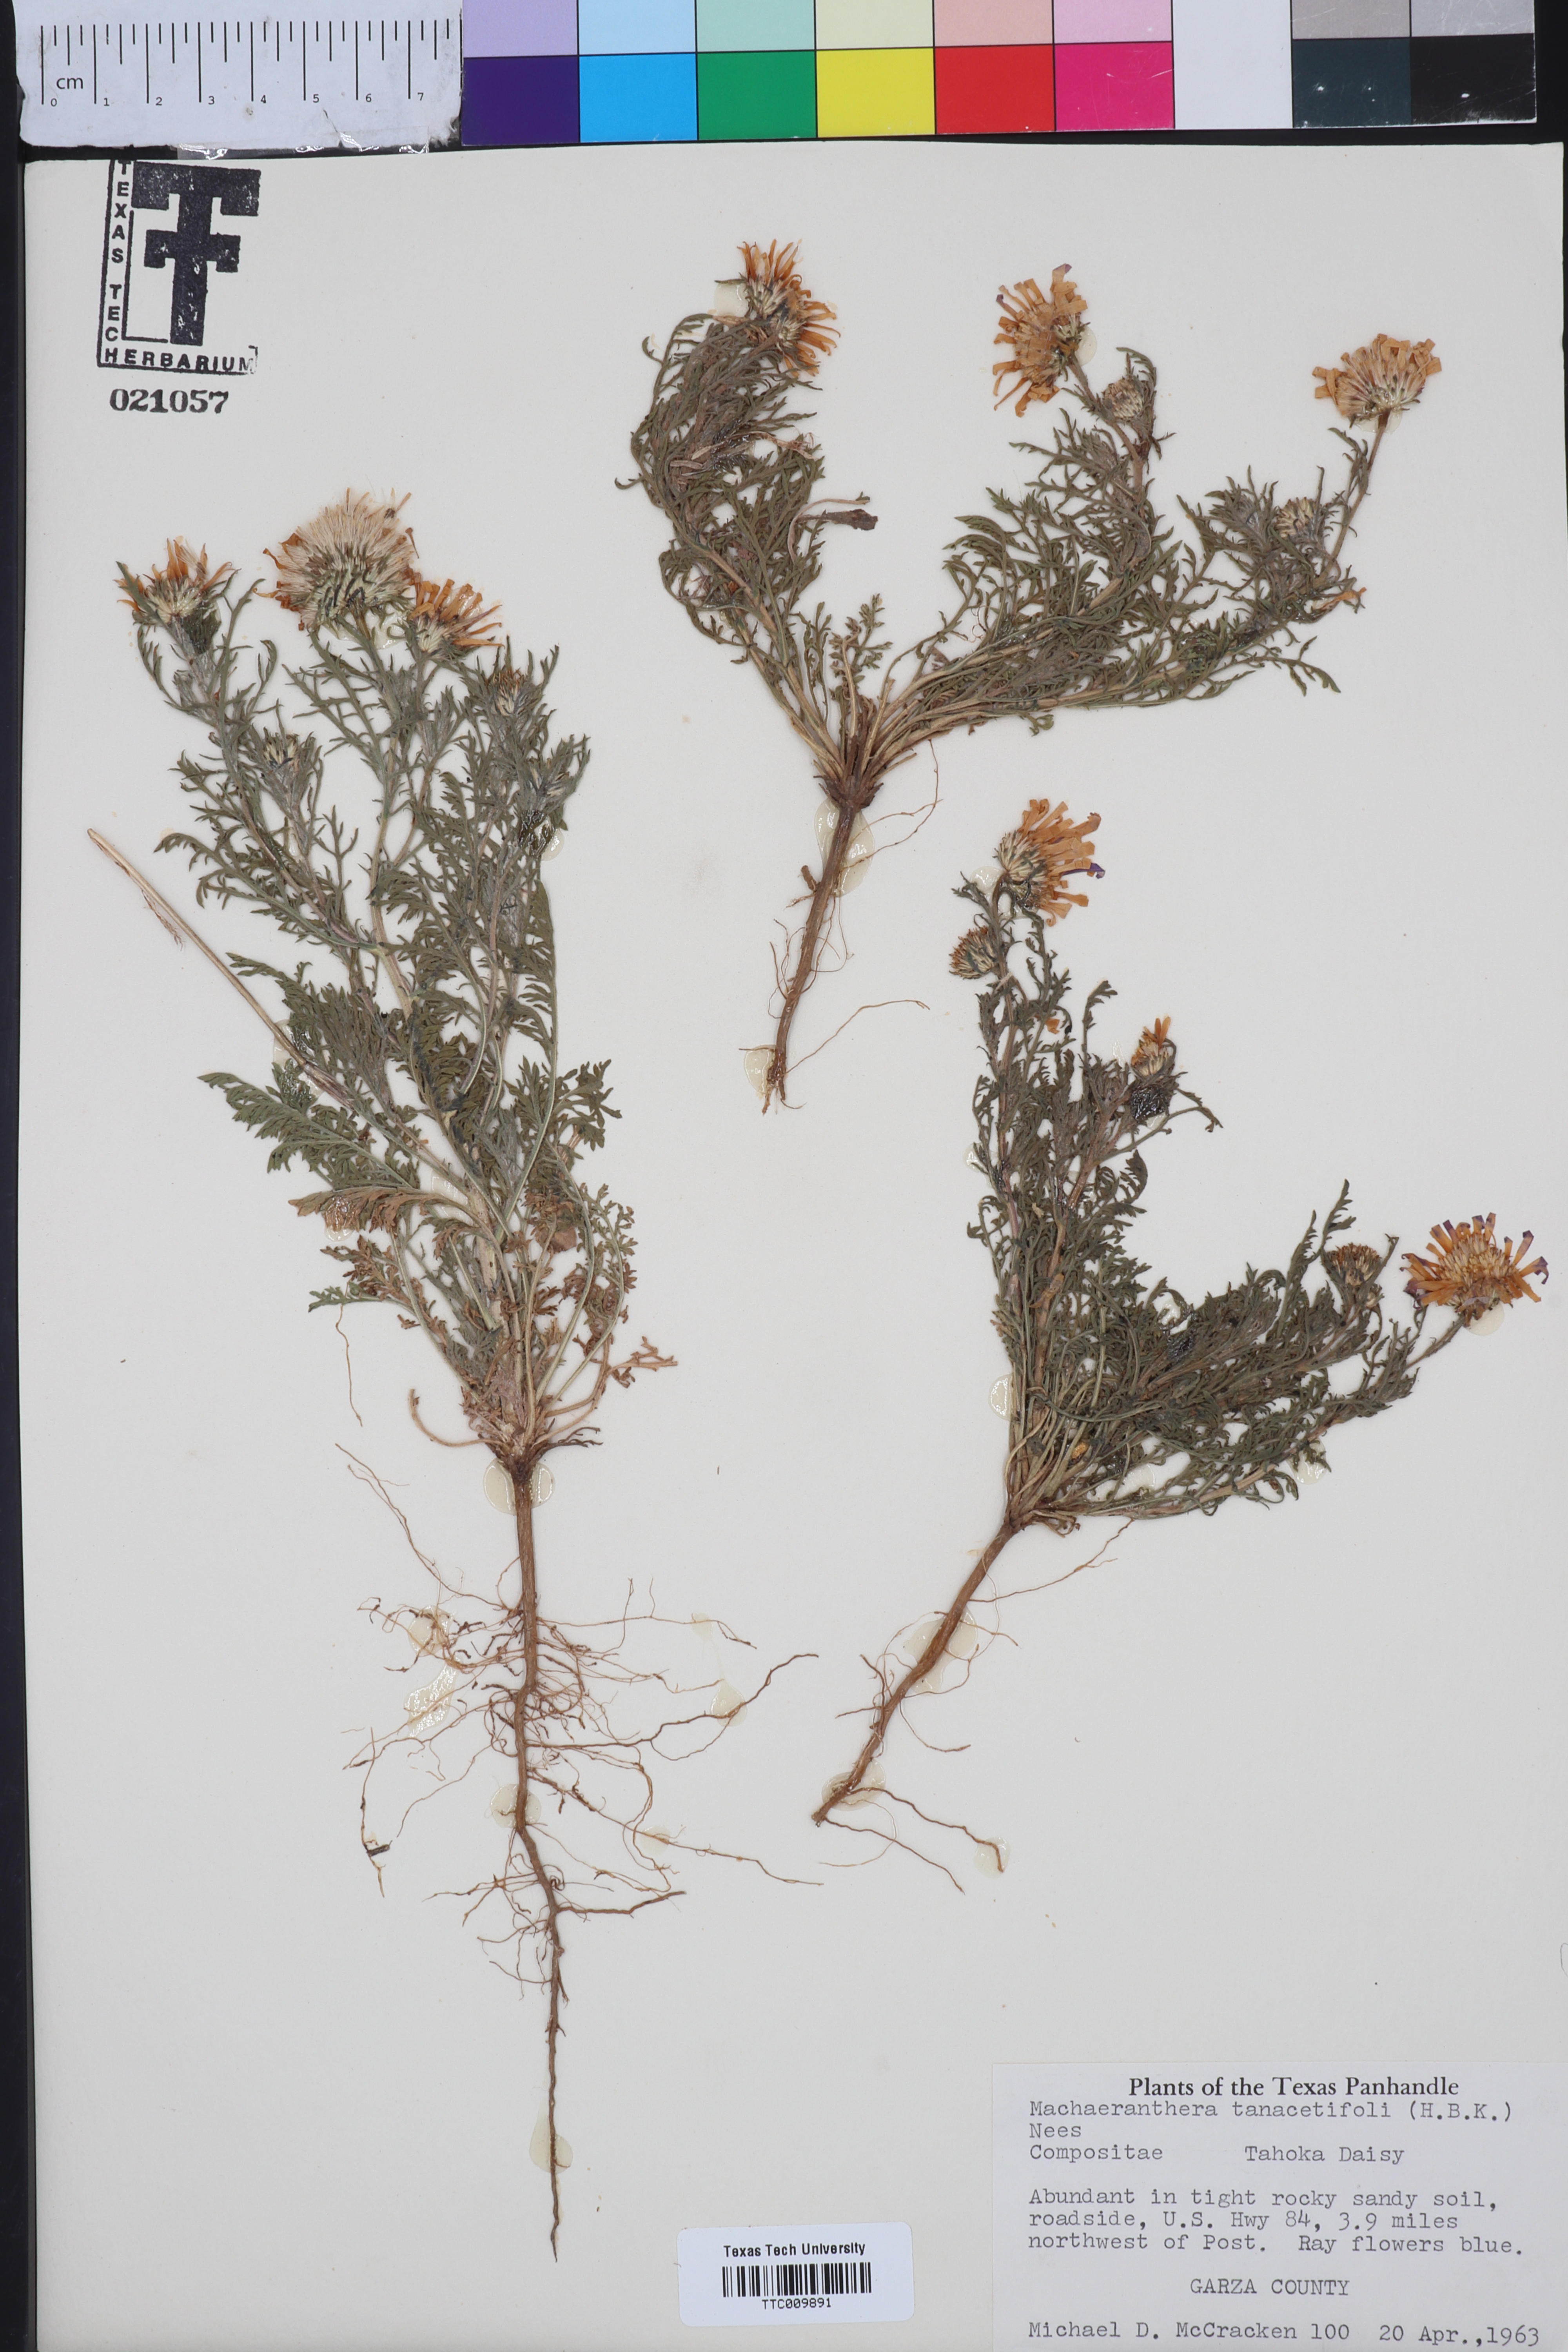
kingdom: Plantae
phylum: Tracheophyta
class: Magnoliopsida
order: Asterales
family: Asteraceae
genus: Machaeranthera
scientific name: Machaeranthera tanacetifolia
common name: Tansy-aster
